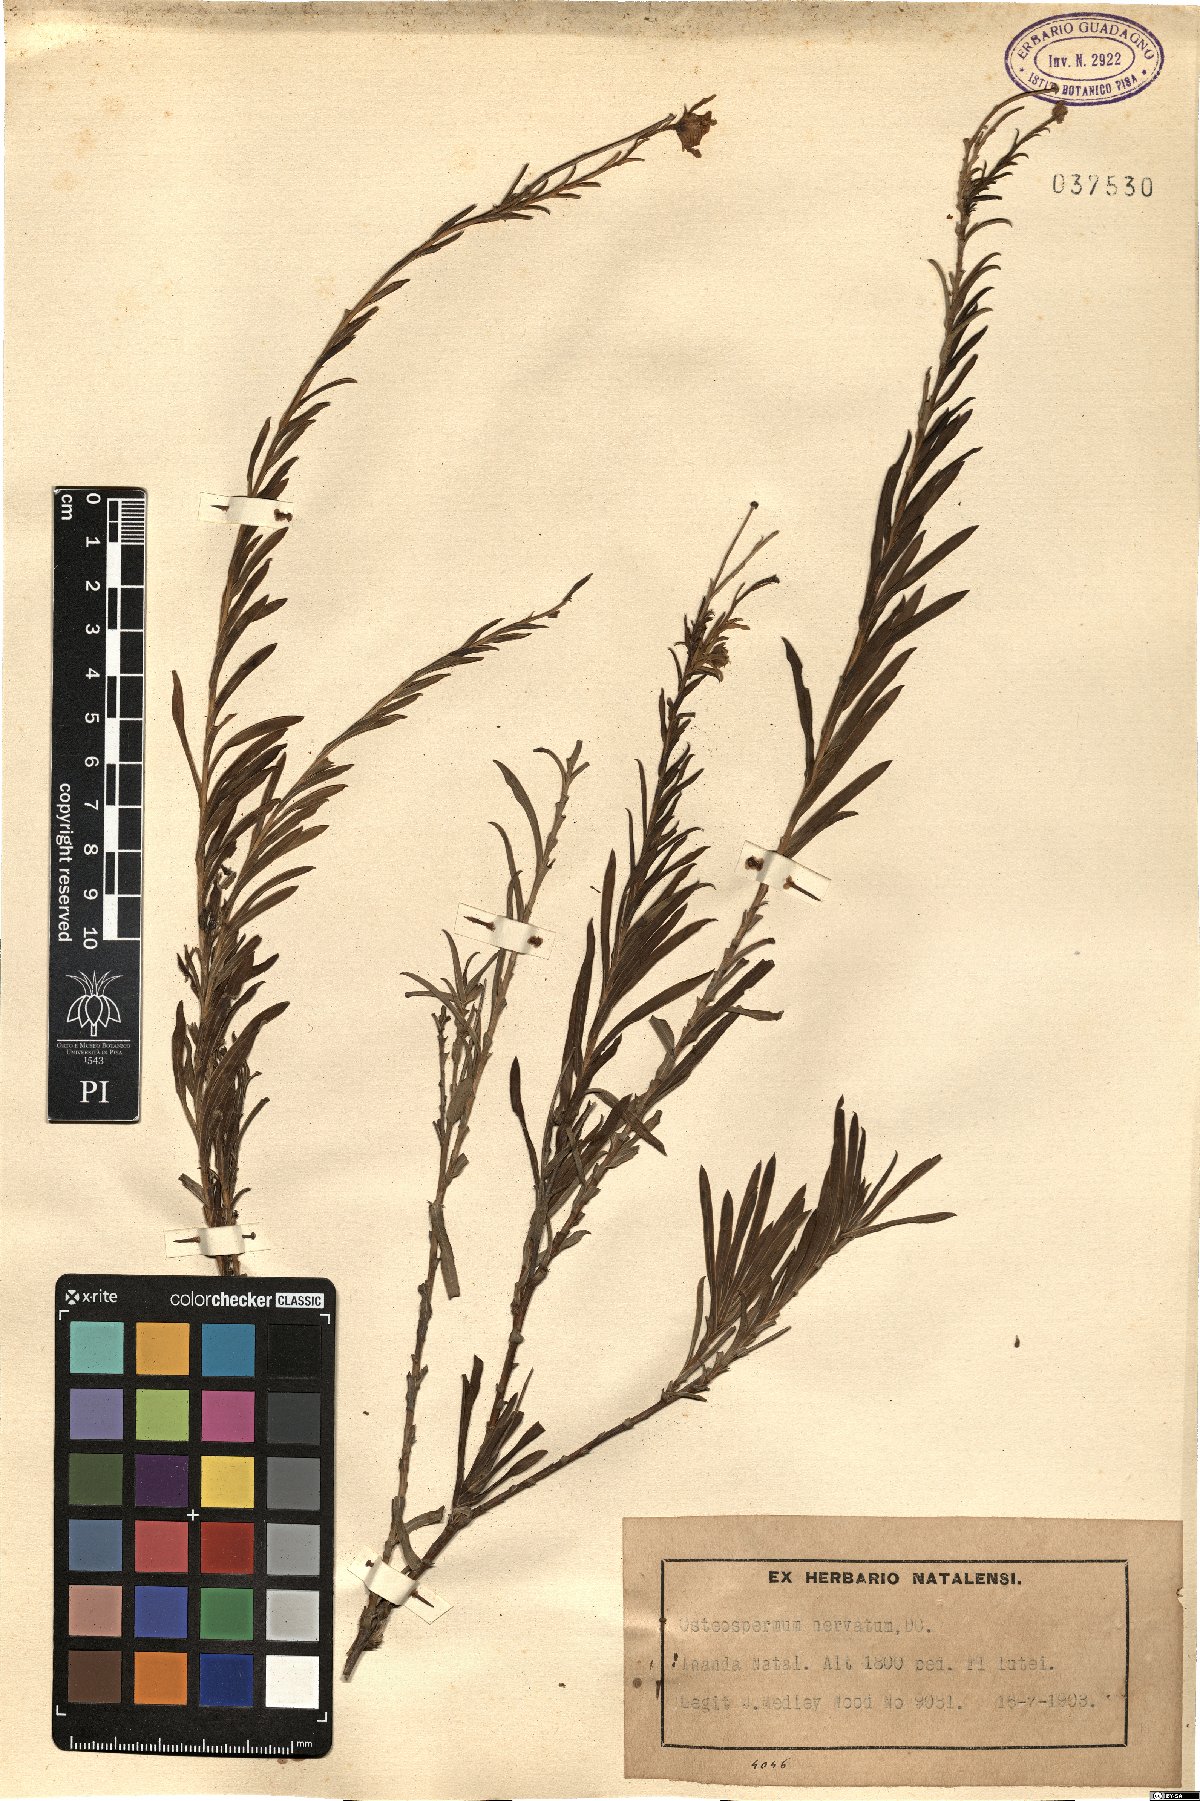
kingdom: Plantae
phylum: Tracheophyta
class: Magnoliopsida
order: Asterales
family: Asteraceae
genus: Osteospermum
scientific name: Osteospermum imbricatum
